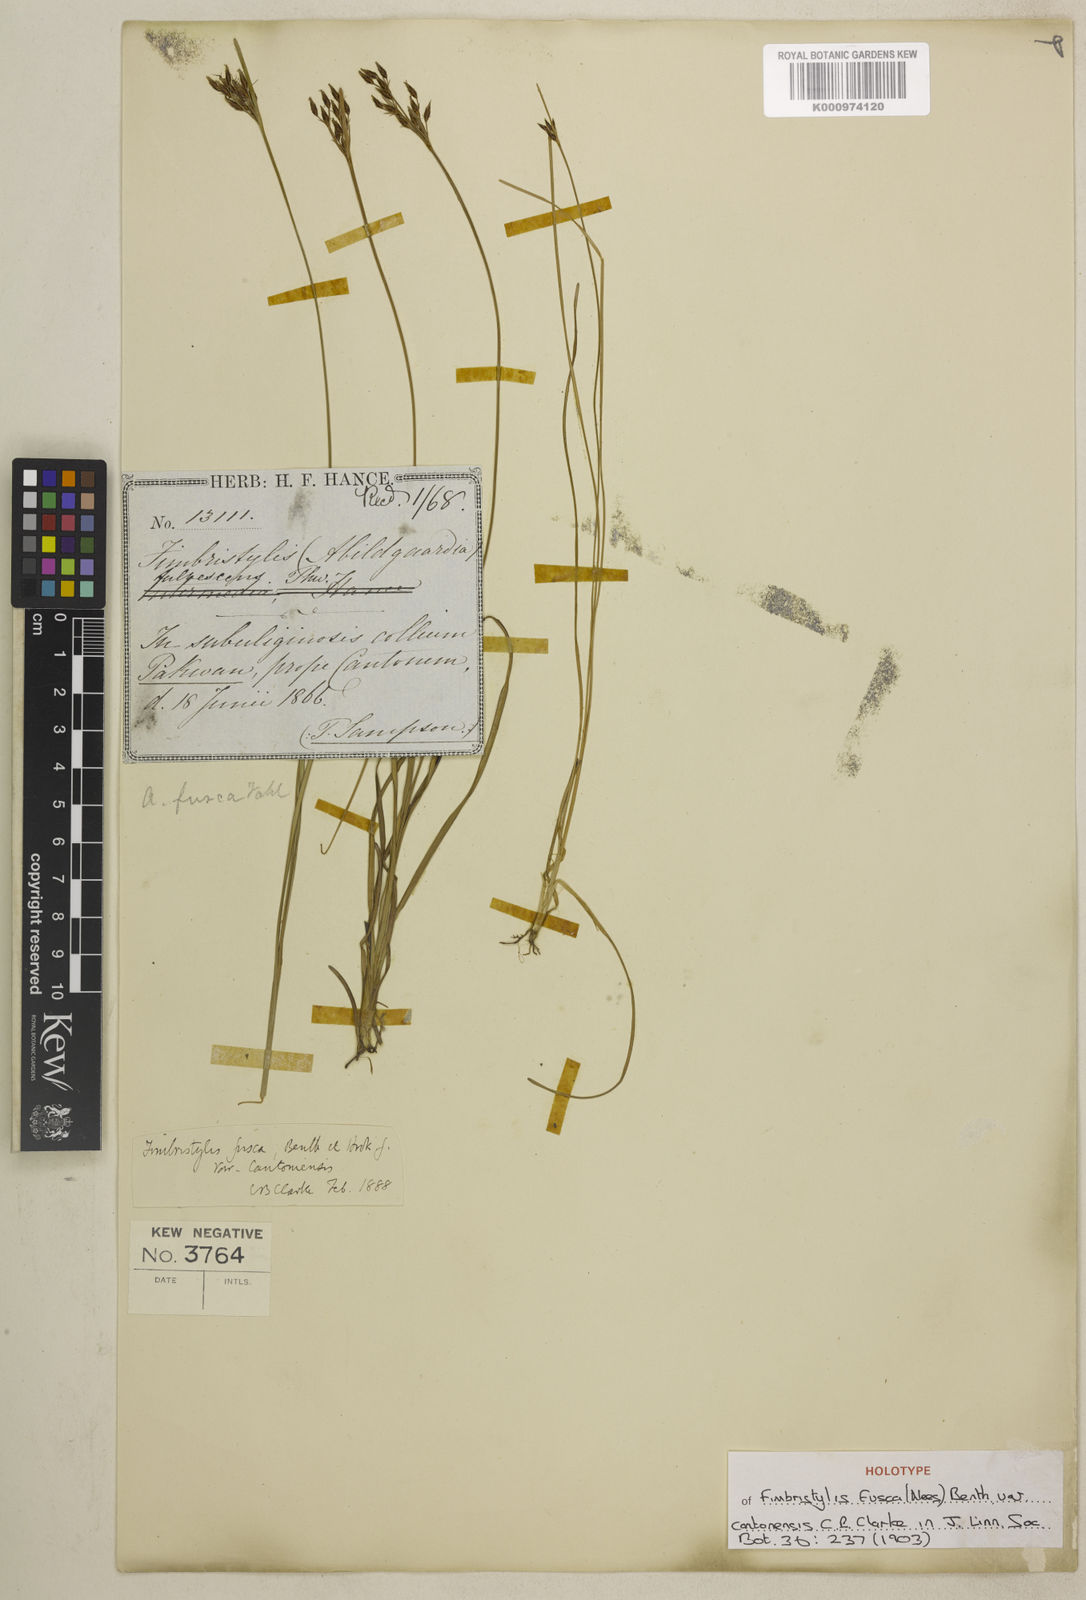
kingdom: Plantae
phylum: Tracheophyta
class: Liliopsida
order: Poales
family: Cyperaceae
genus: Fimbristylis
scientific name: Fimbristylis fusca
